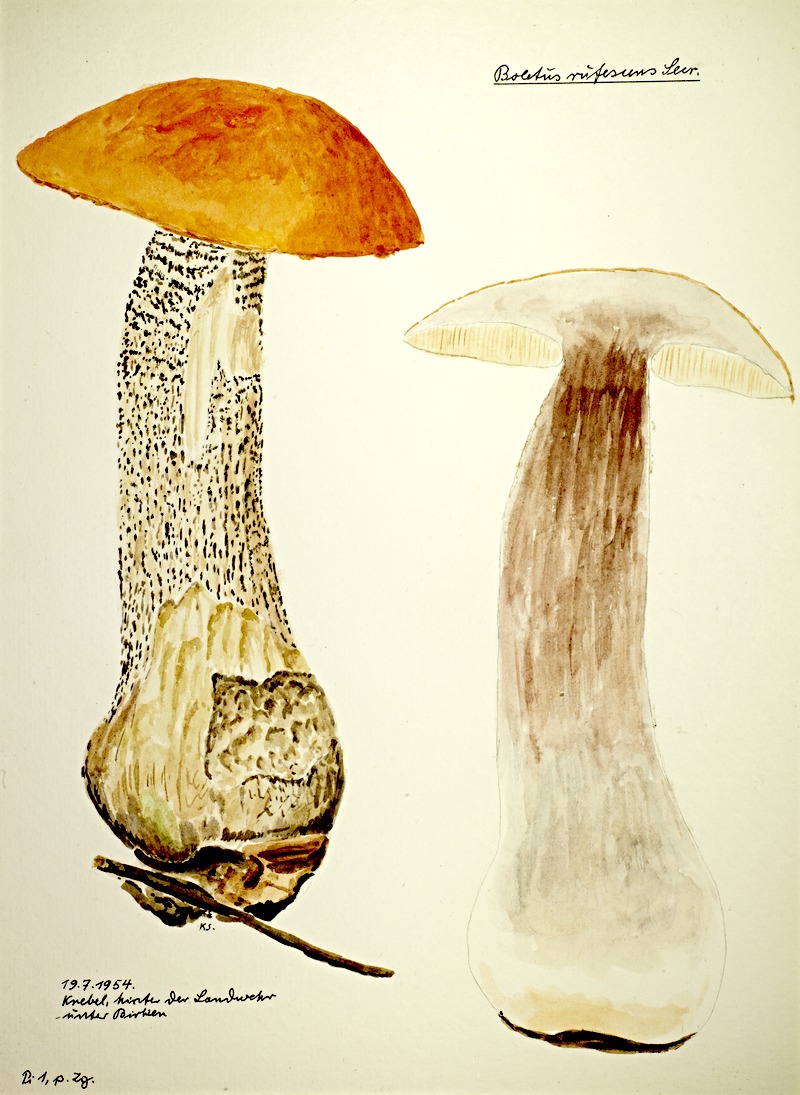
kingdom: Fungi
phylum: Basidiomycota
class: Agaricomycetes
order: Boletales
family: Boletaceae
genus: Leccinum
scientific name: Leccinum versipelle
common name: Orange birch bolete
